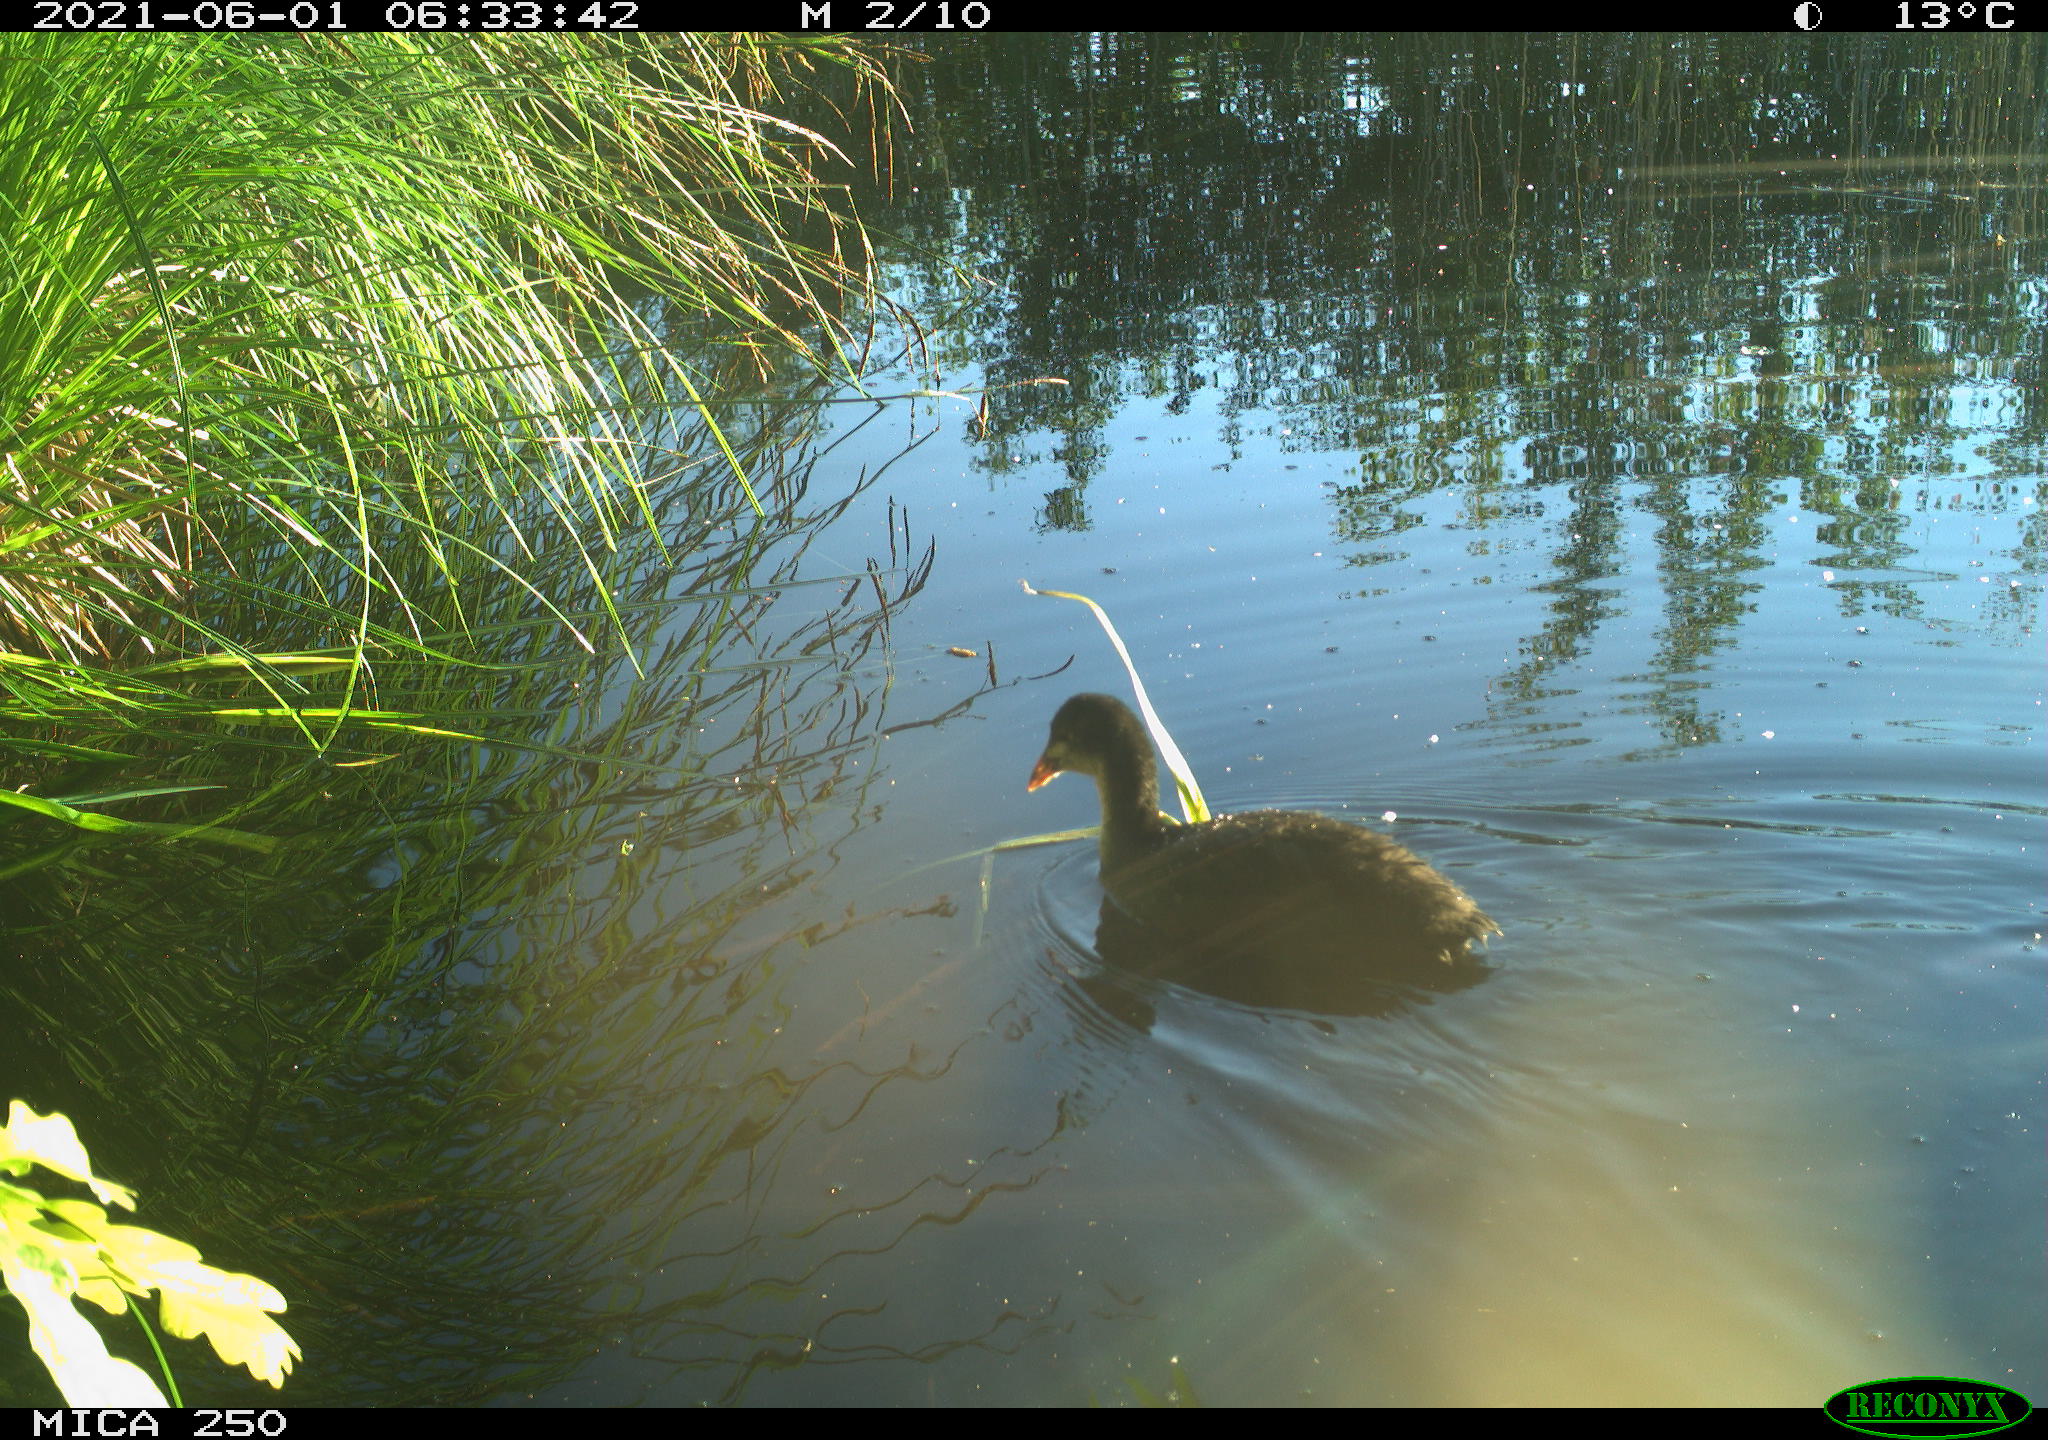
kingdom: Animalia
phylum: Chordata
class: Aves
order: Gruiformes
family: Rallidae
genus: Fulica
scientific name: Fulica atra
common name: Eurasian coot
